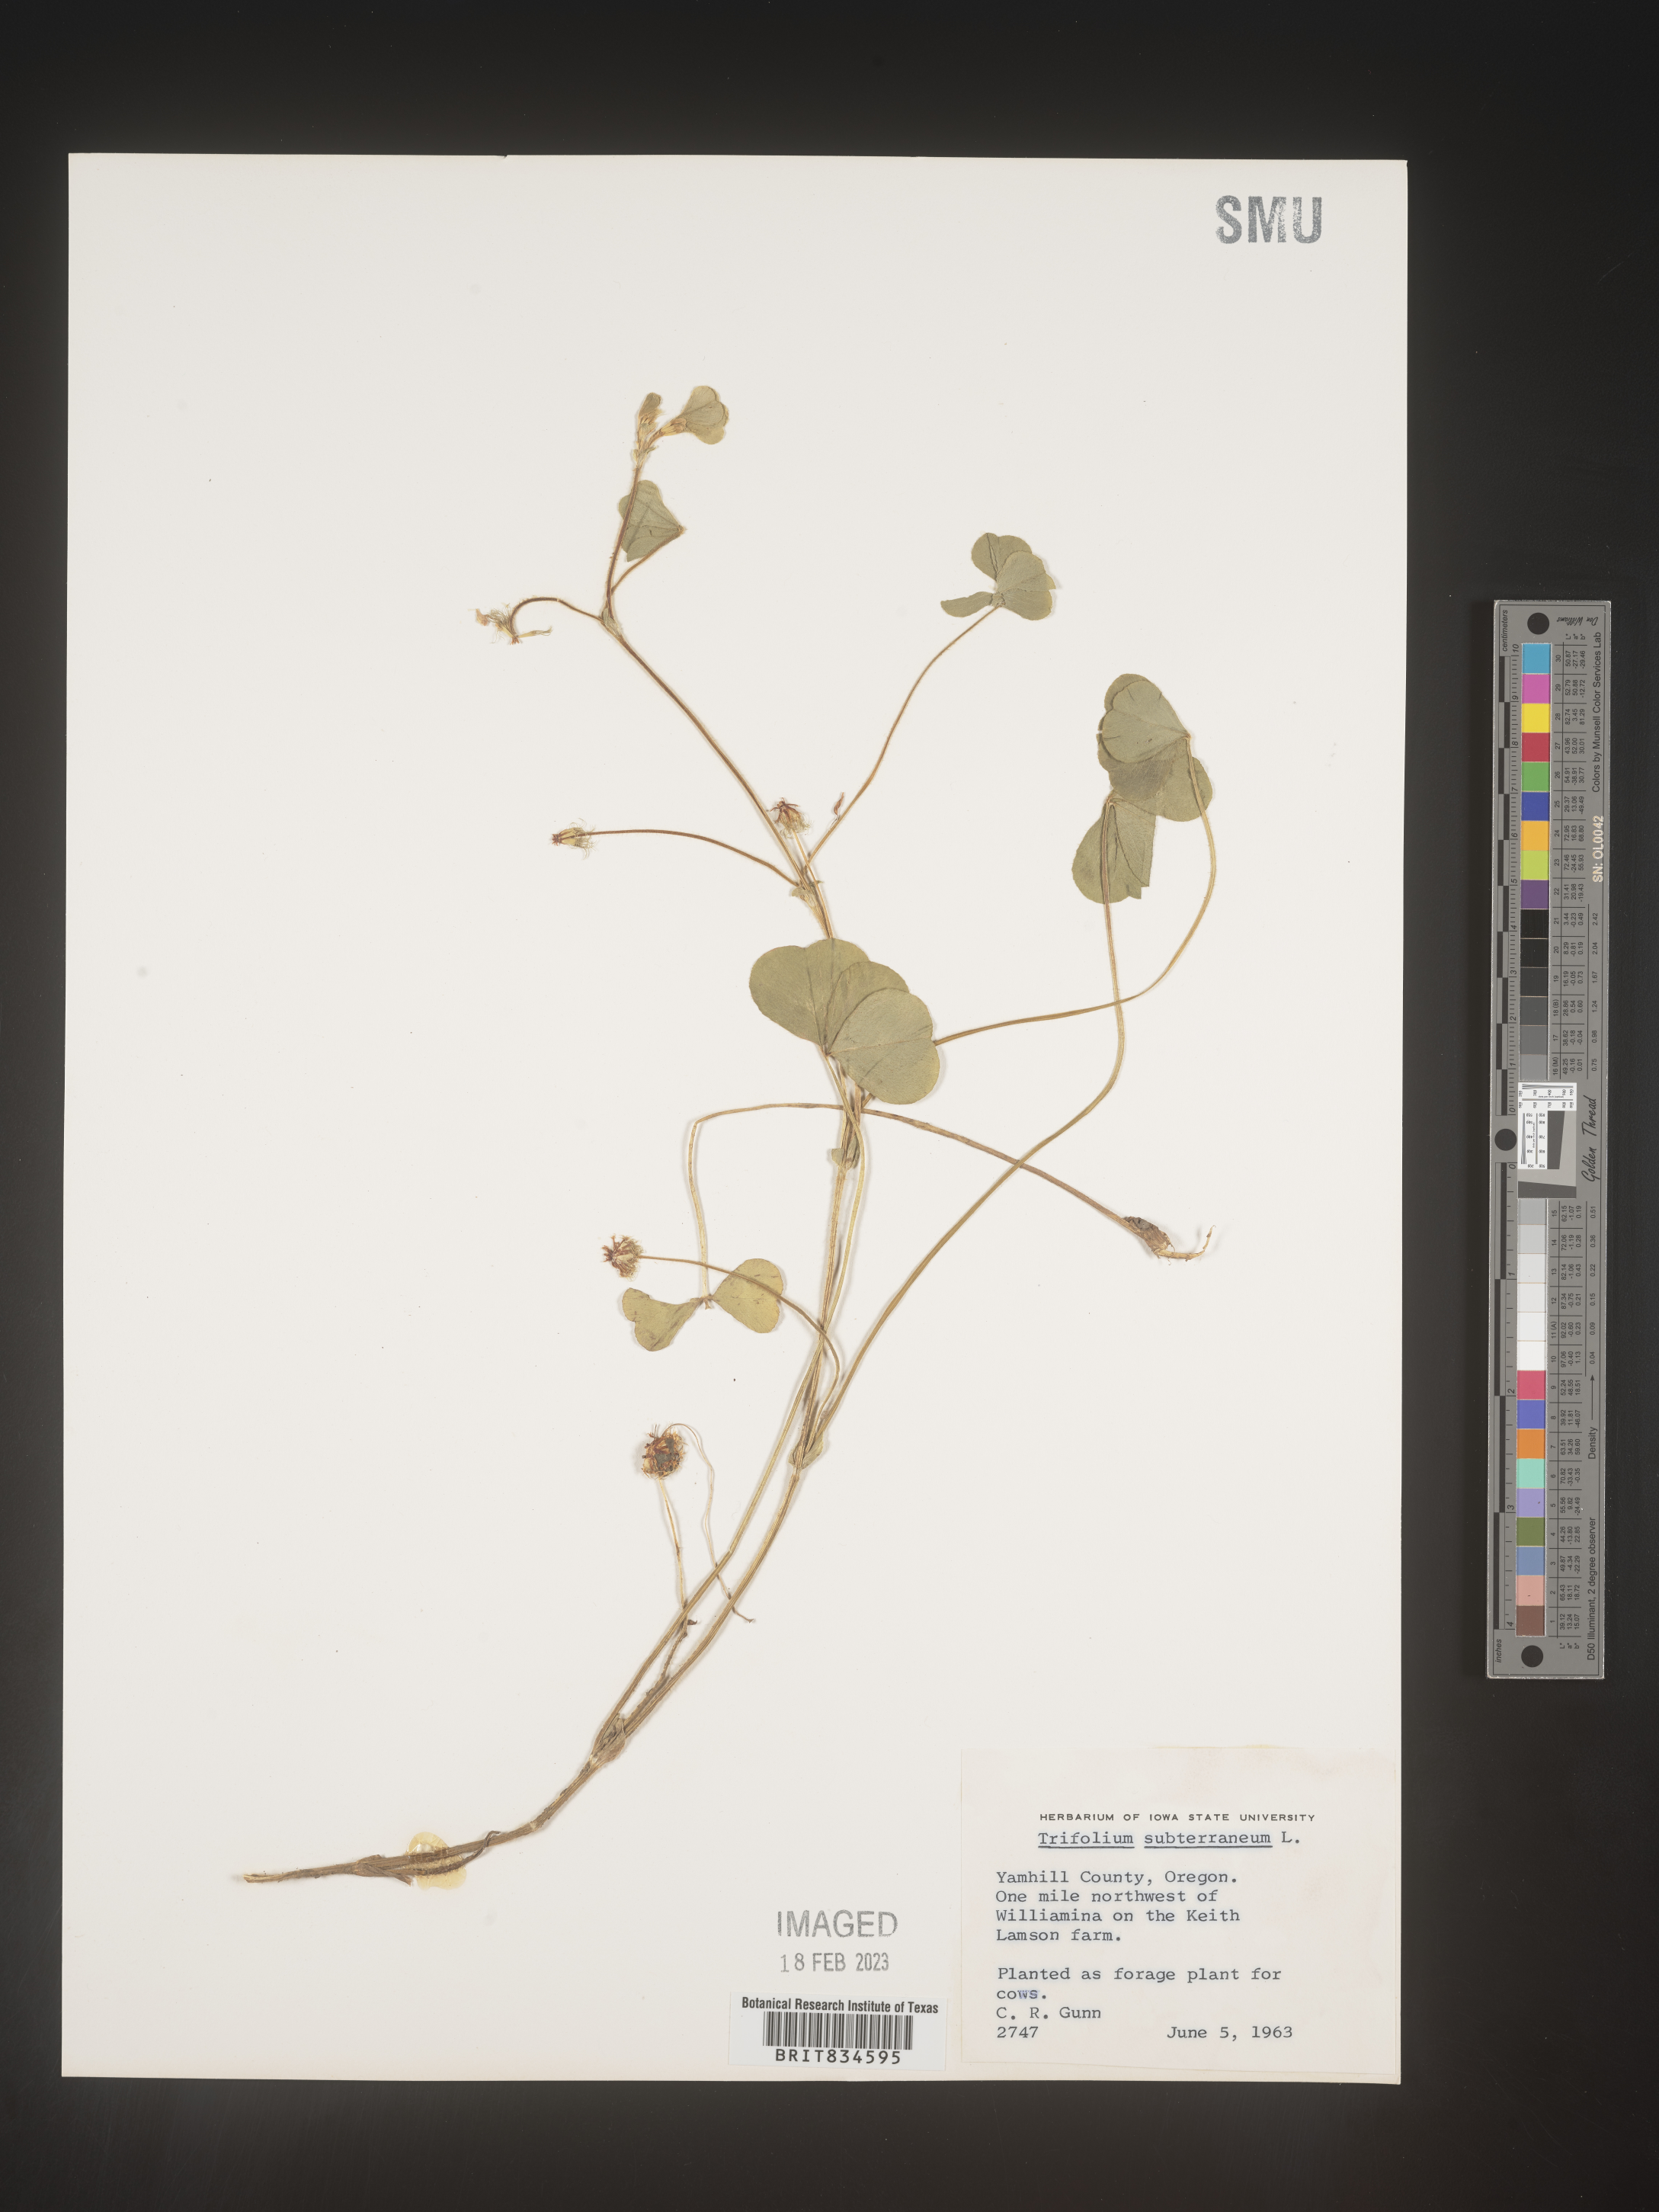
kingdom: Plantae
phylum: Tracheophyta
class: Magnoliopsida
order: Fabales
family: Fabaceae
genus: Trifolium
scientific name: Trifolium
